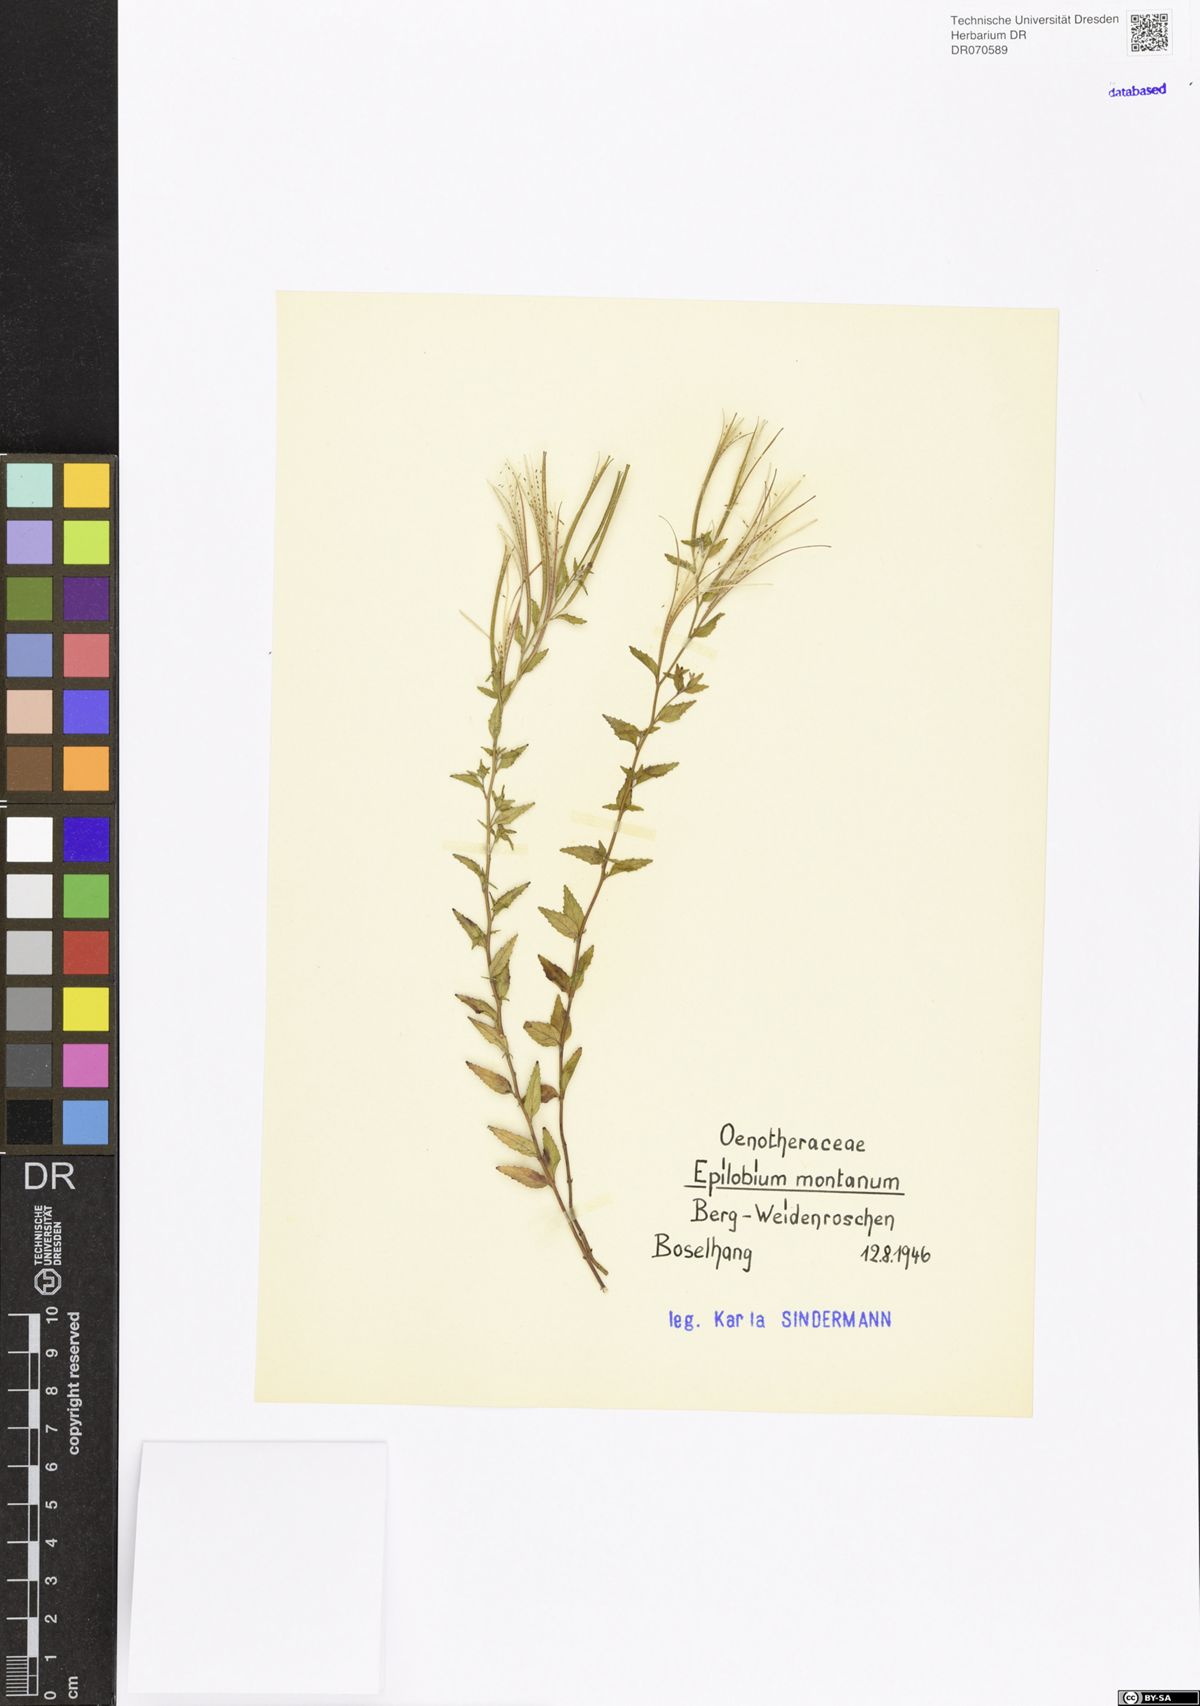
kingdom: Plantae
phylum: Tracheophyta
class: Magnoliopsida
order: Myrtales
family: Onagraceae
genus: Epilobium
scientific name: Epilobium montanum
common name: Broad-leaved willowherb
